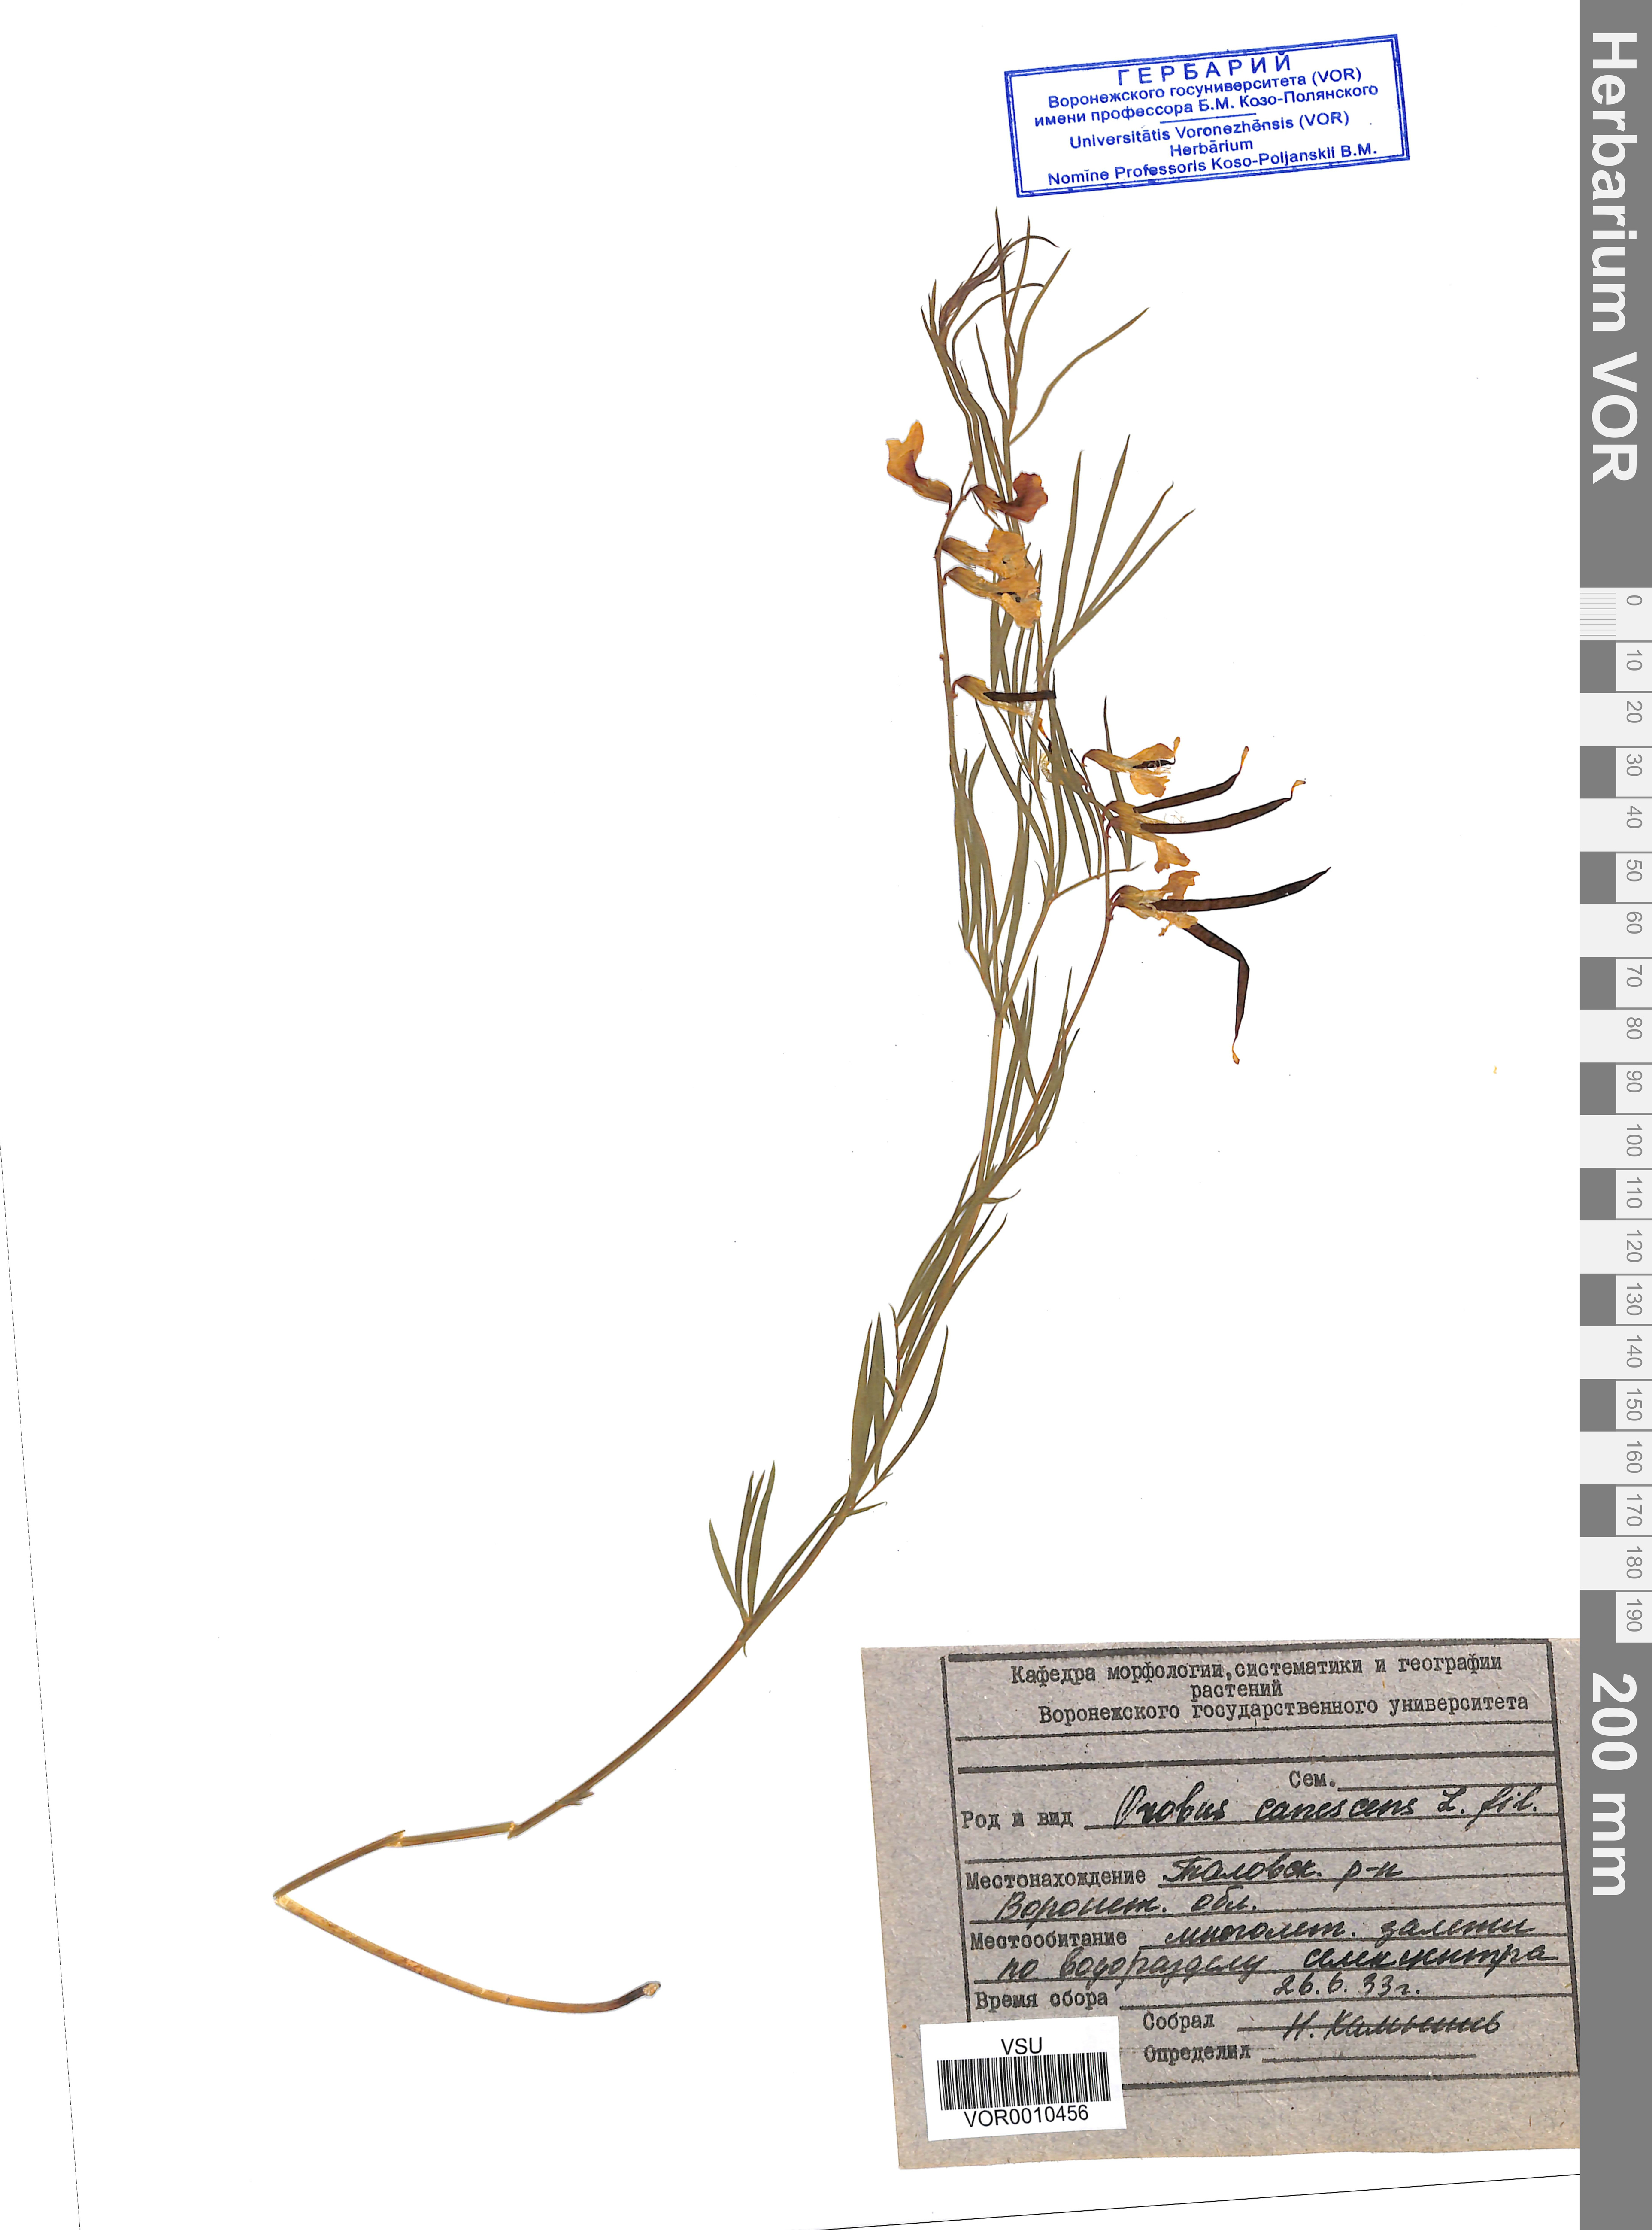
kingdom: Plantae
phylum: Tracheophyta
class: Magnoliopsida
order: Fabales
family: Fabaceae
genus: Lathyrus
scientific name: Lathyrus filiformis
